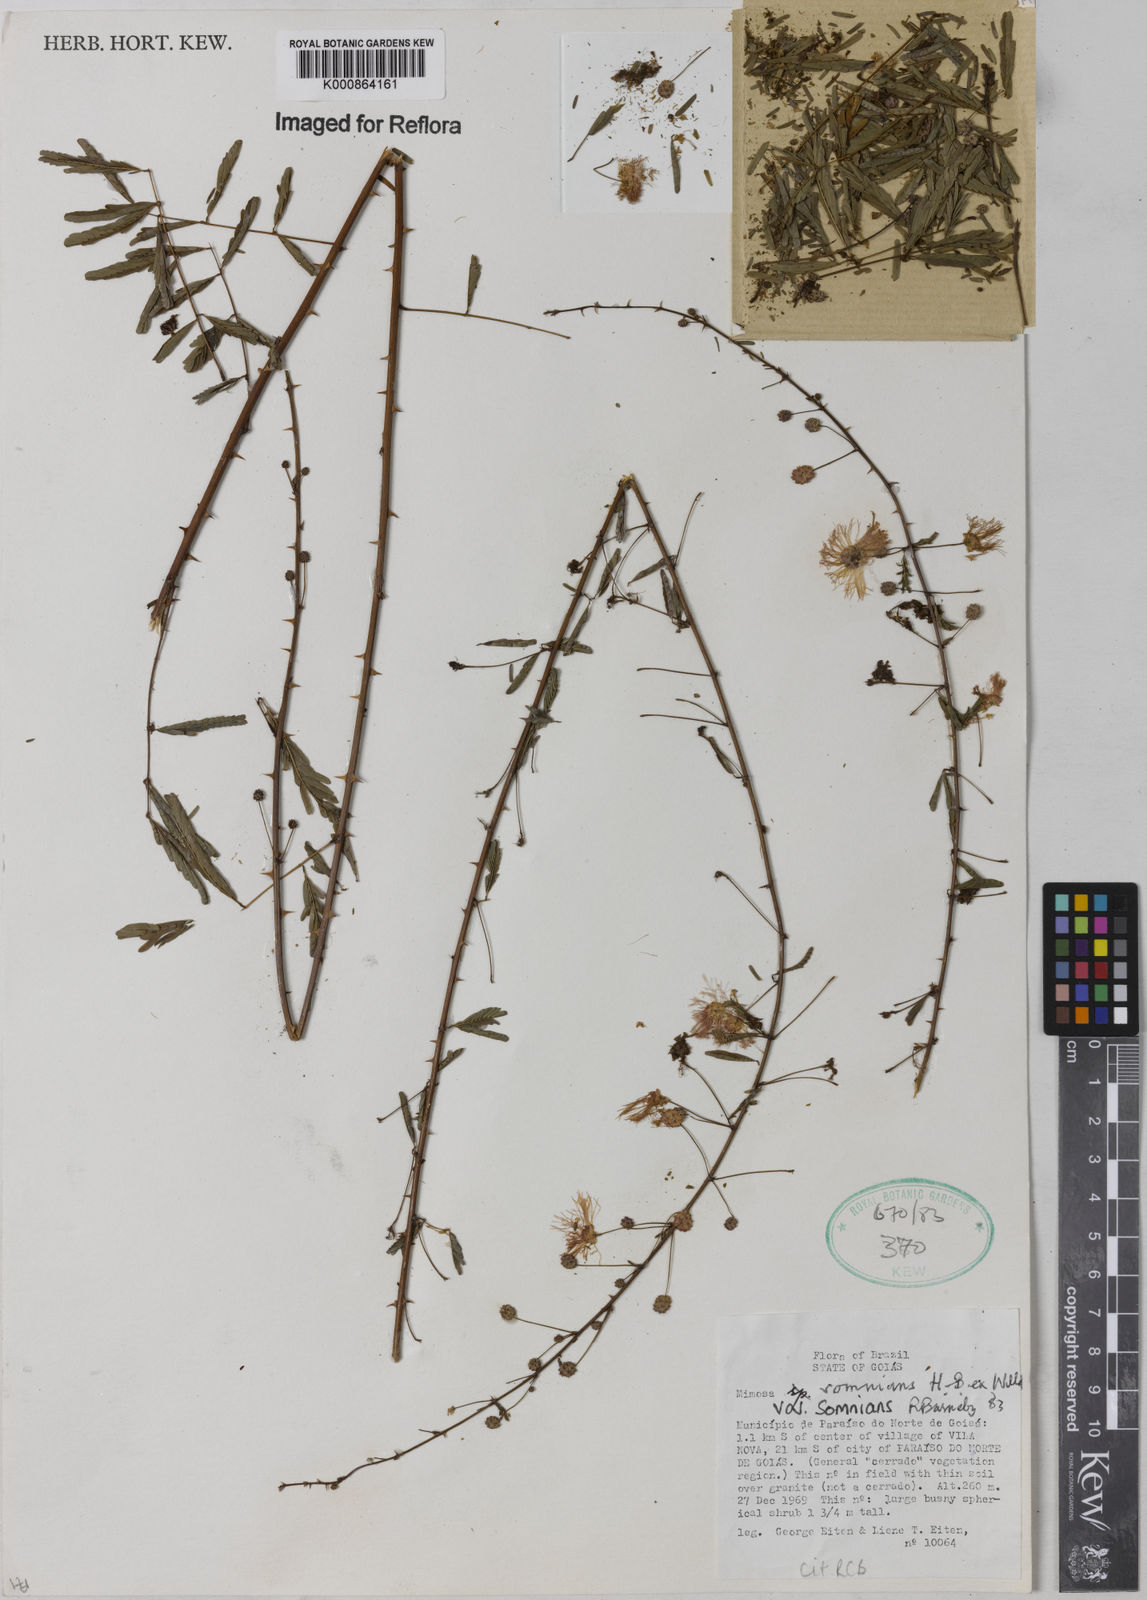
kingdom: Plantae
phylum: Tracheophyta
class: Magnoliopsida
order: Fabales
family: Fabaceae
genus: Mimosa
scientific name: Mimosa somnians
